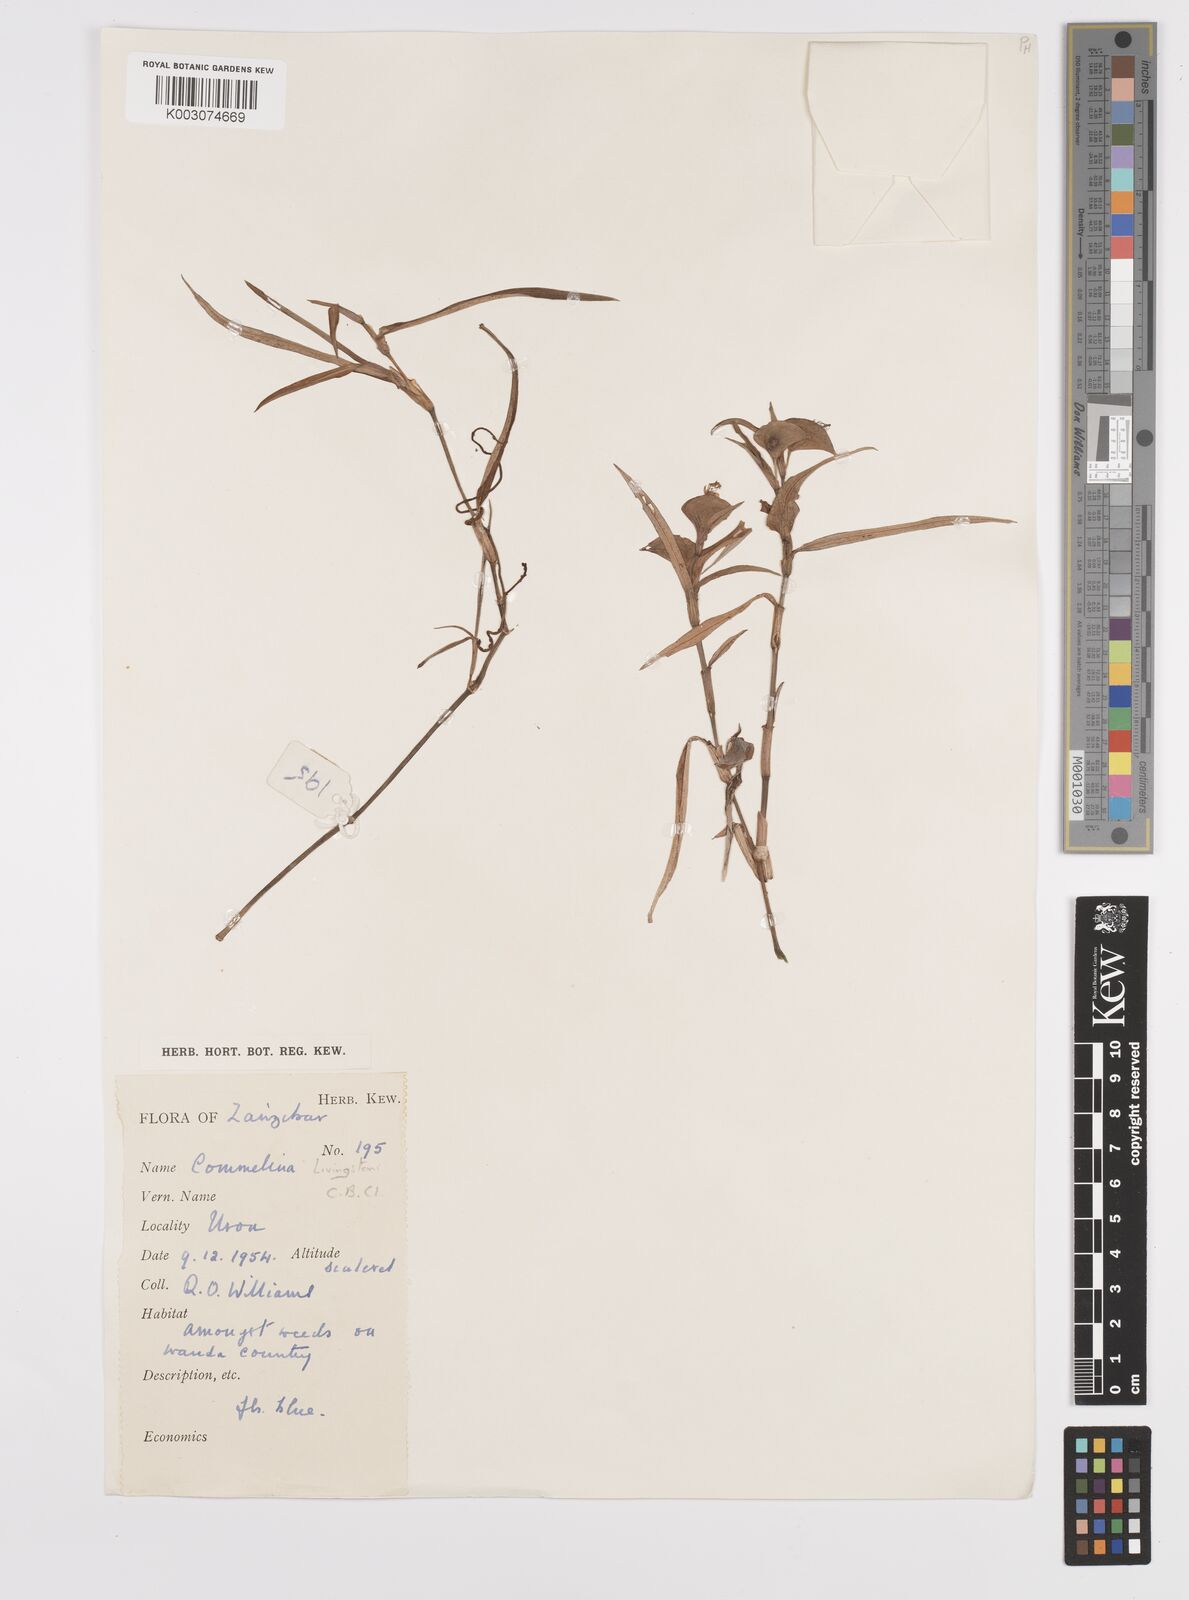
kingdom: Plantae
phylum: Tracheophyta
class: Liliopsida
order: Commelinales
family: Commelinaceae
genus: Commelina
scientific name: Commelina erecta
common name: Blousel blommetjie
